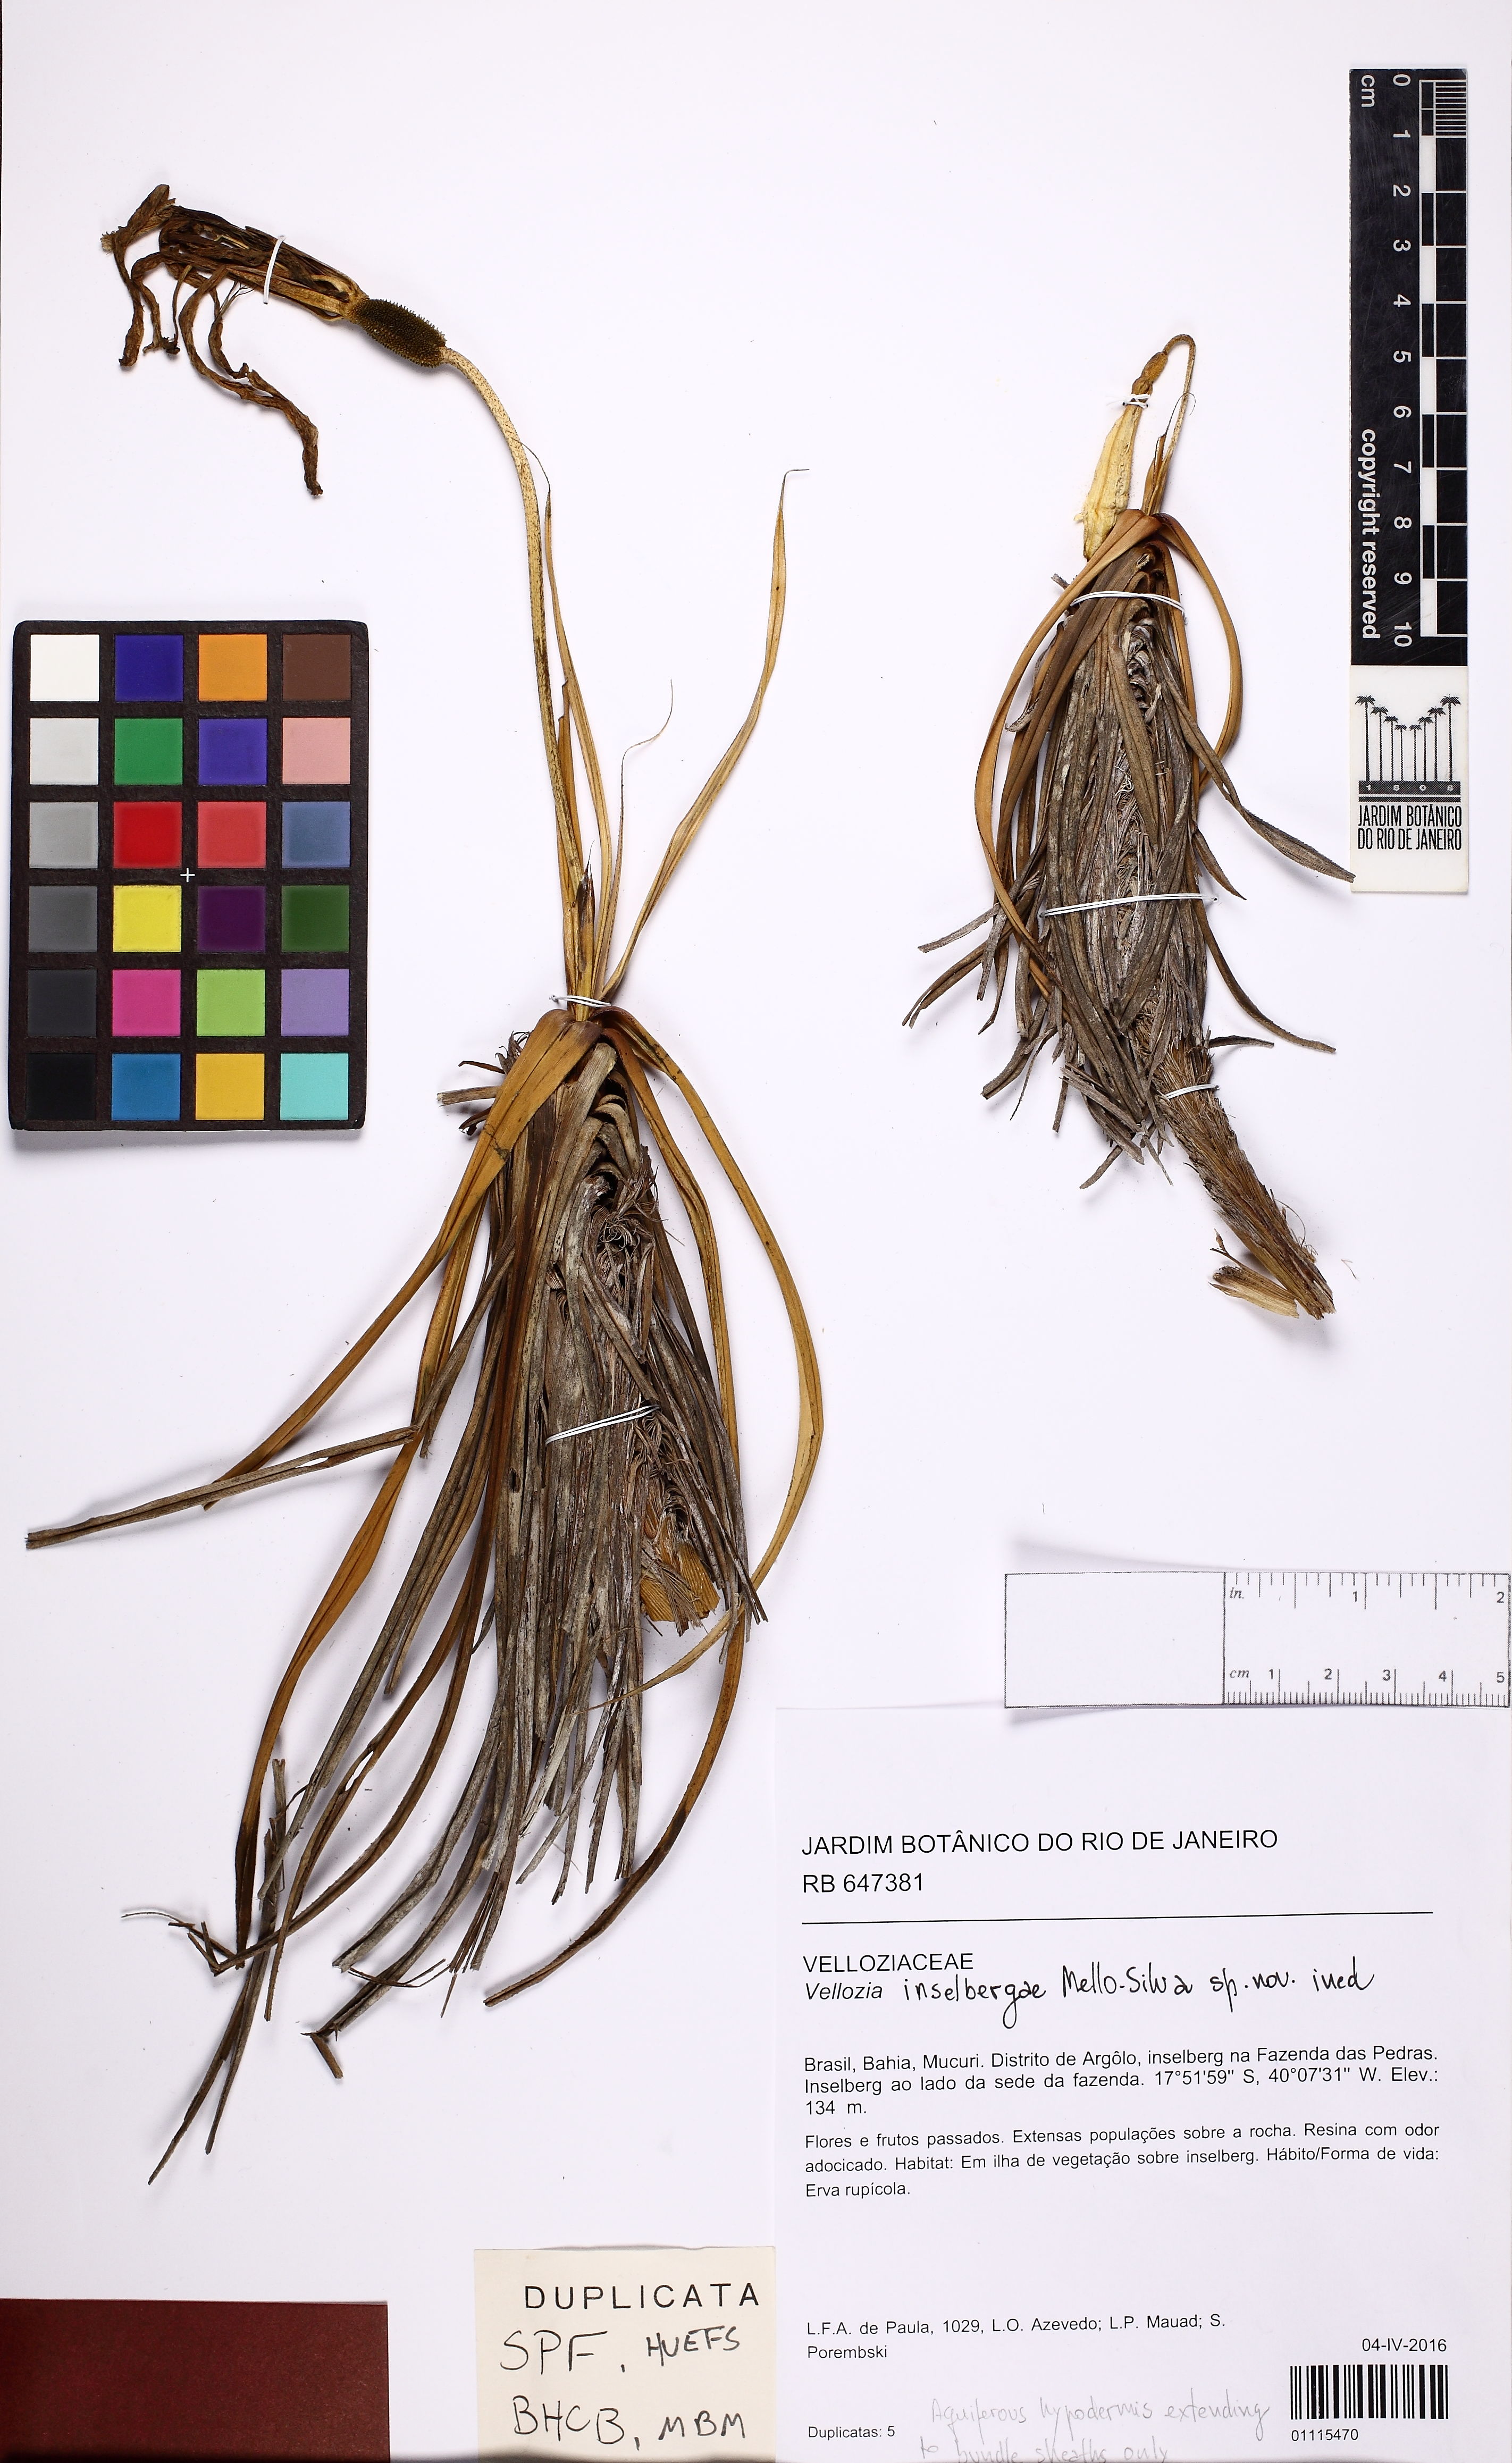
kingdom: Plantae
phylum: Tracheophyta
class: Liliopsida
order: Pandanales
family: Velloziaceae
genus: Vellozia
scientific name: Vellozia inselbergae
